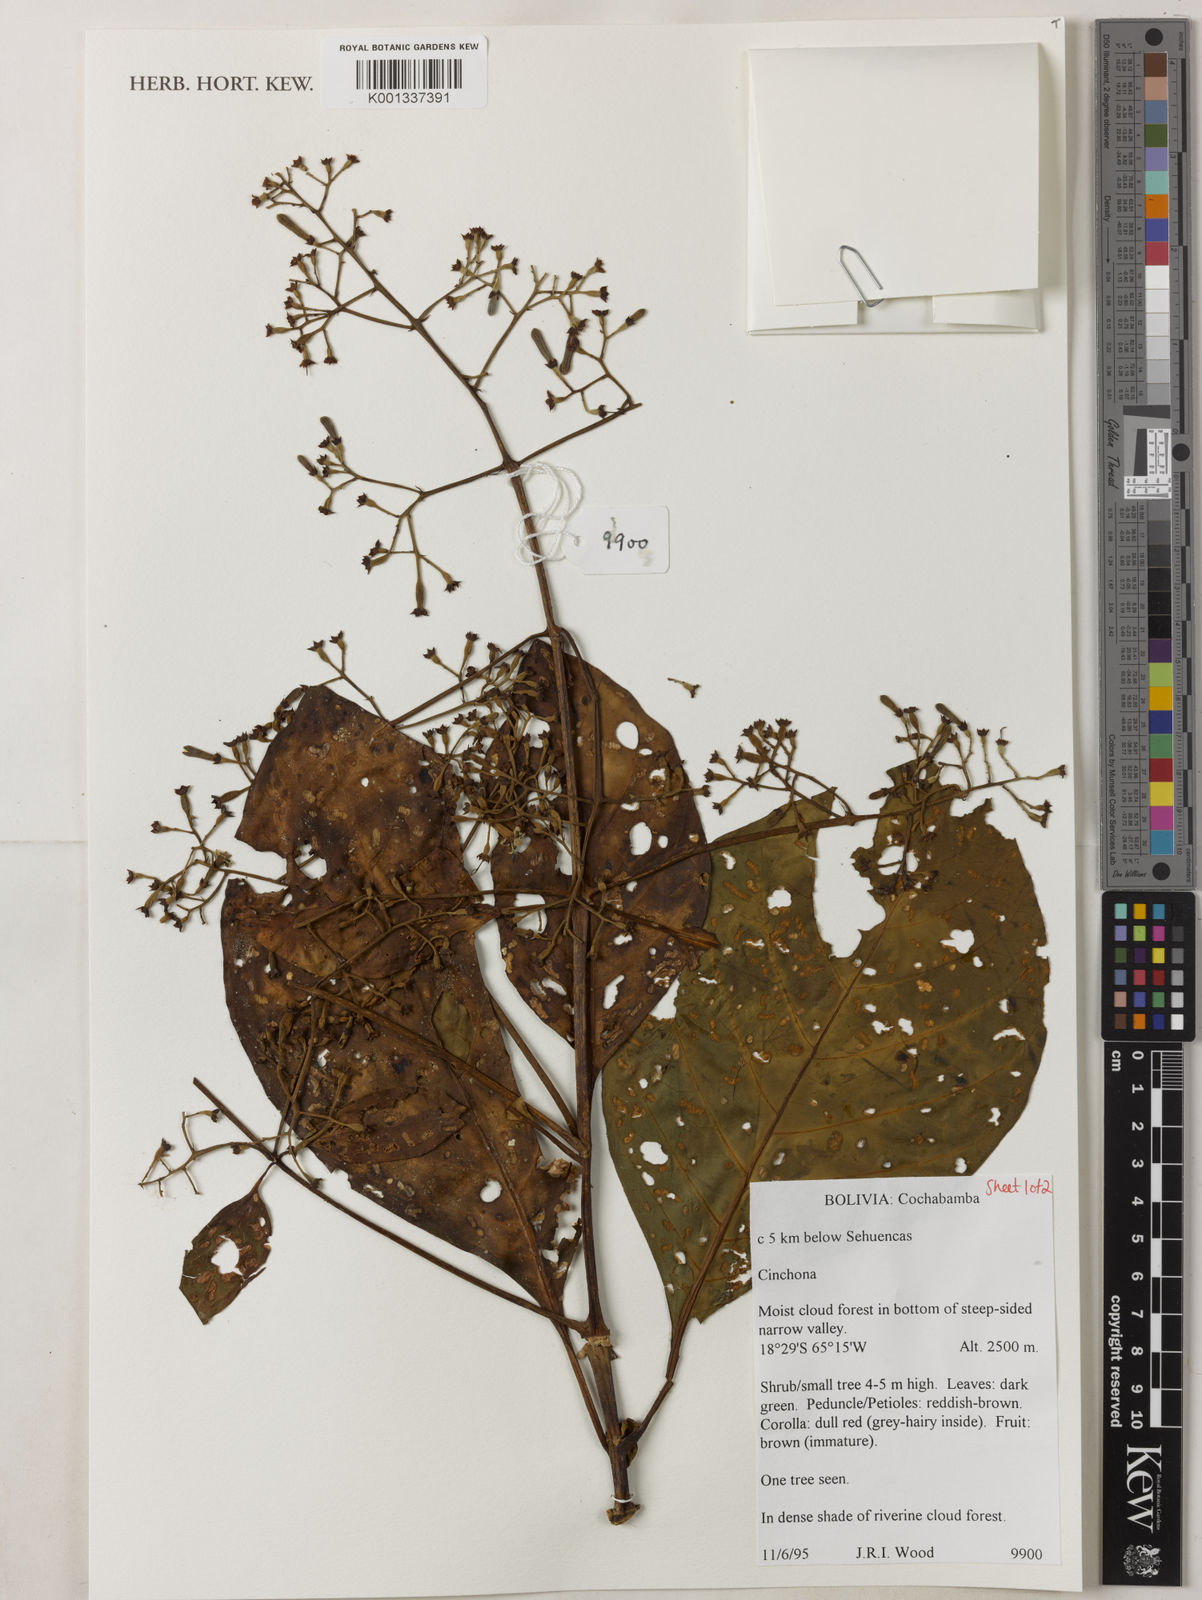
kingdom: Plantae
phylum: Tracheophyta
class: Magnoliopsida
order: Gentianales
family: Rubiaceae
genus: Cinchona
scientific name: Cinchona
